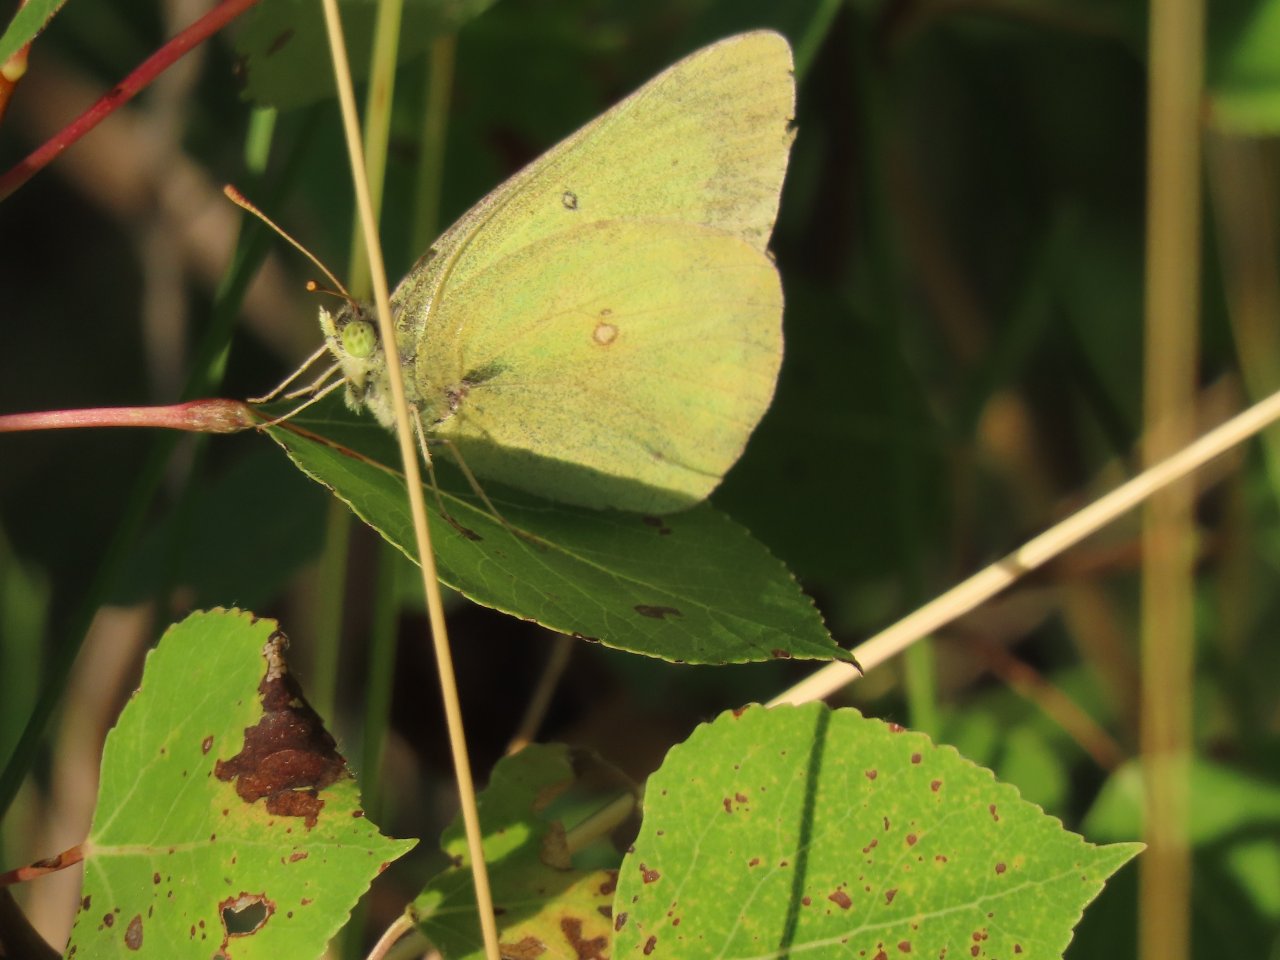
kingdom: Animalia
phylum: Arthropoda
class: Insecta
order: Lepidoptera
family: Pieridae
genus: Colias
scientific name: Colias christina
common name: Christina Sulphur
